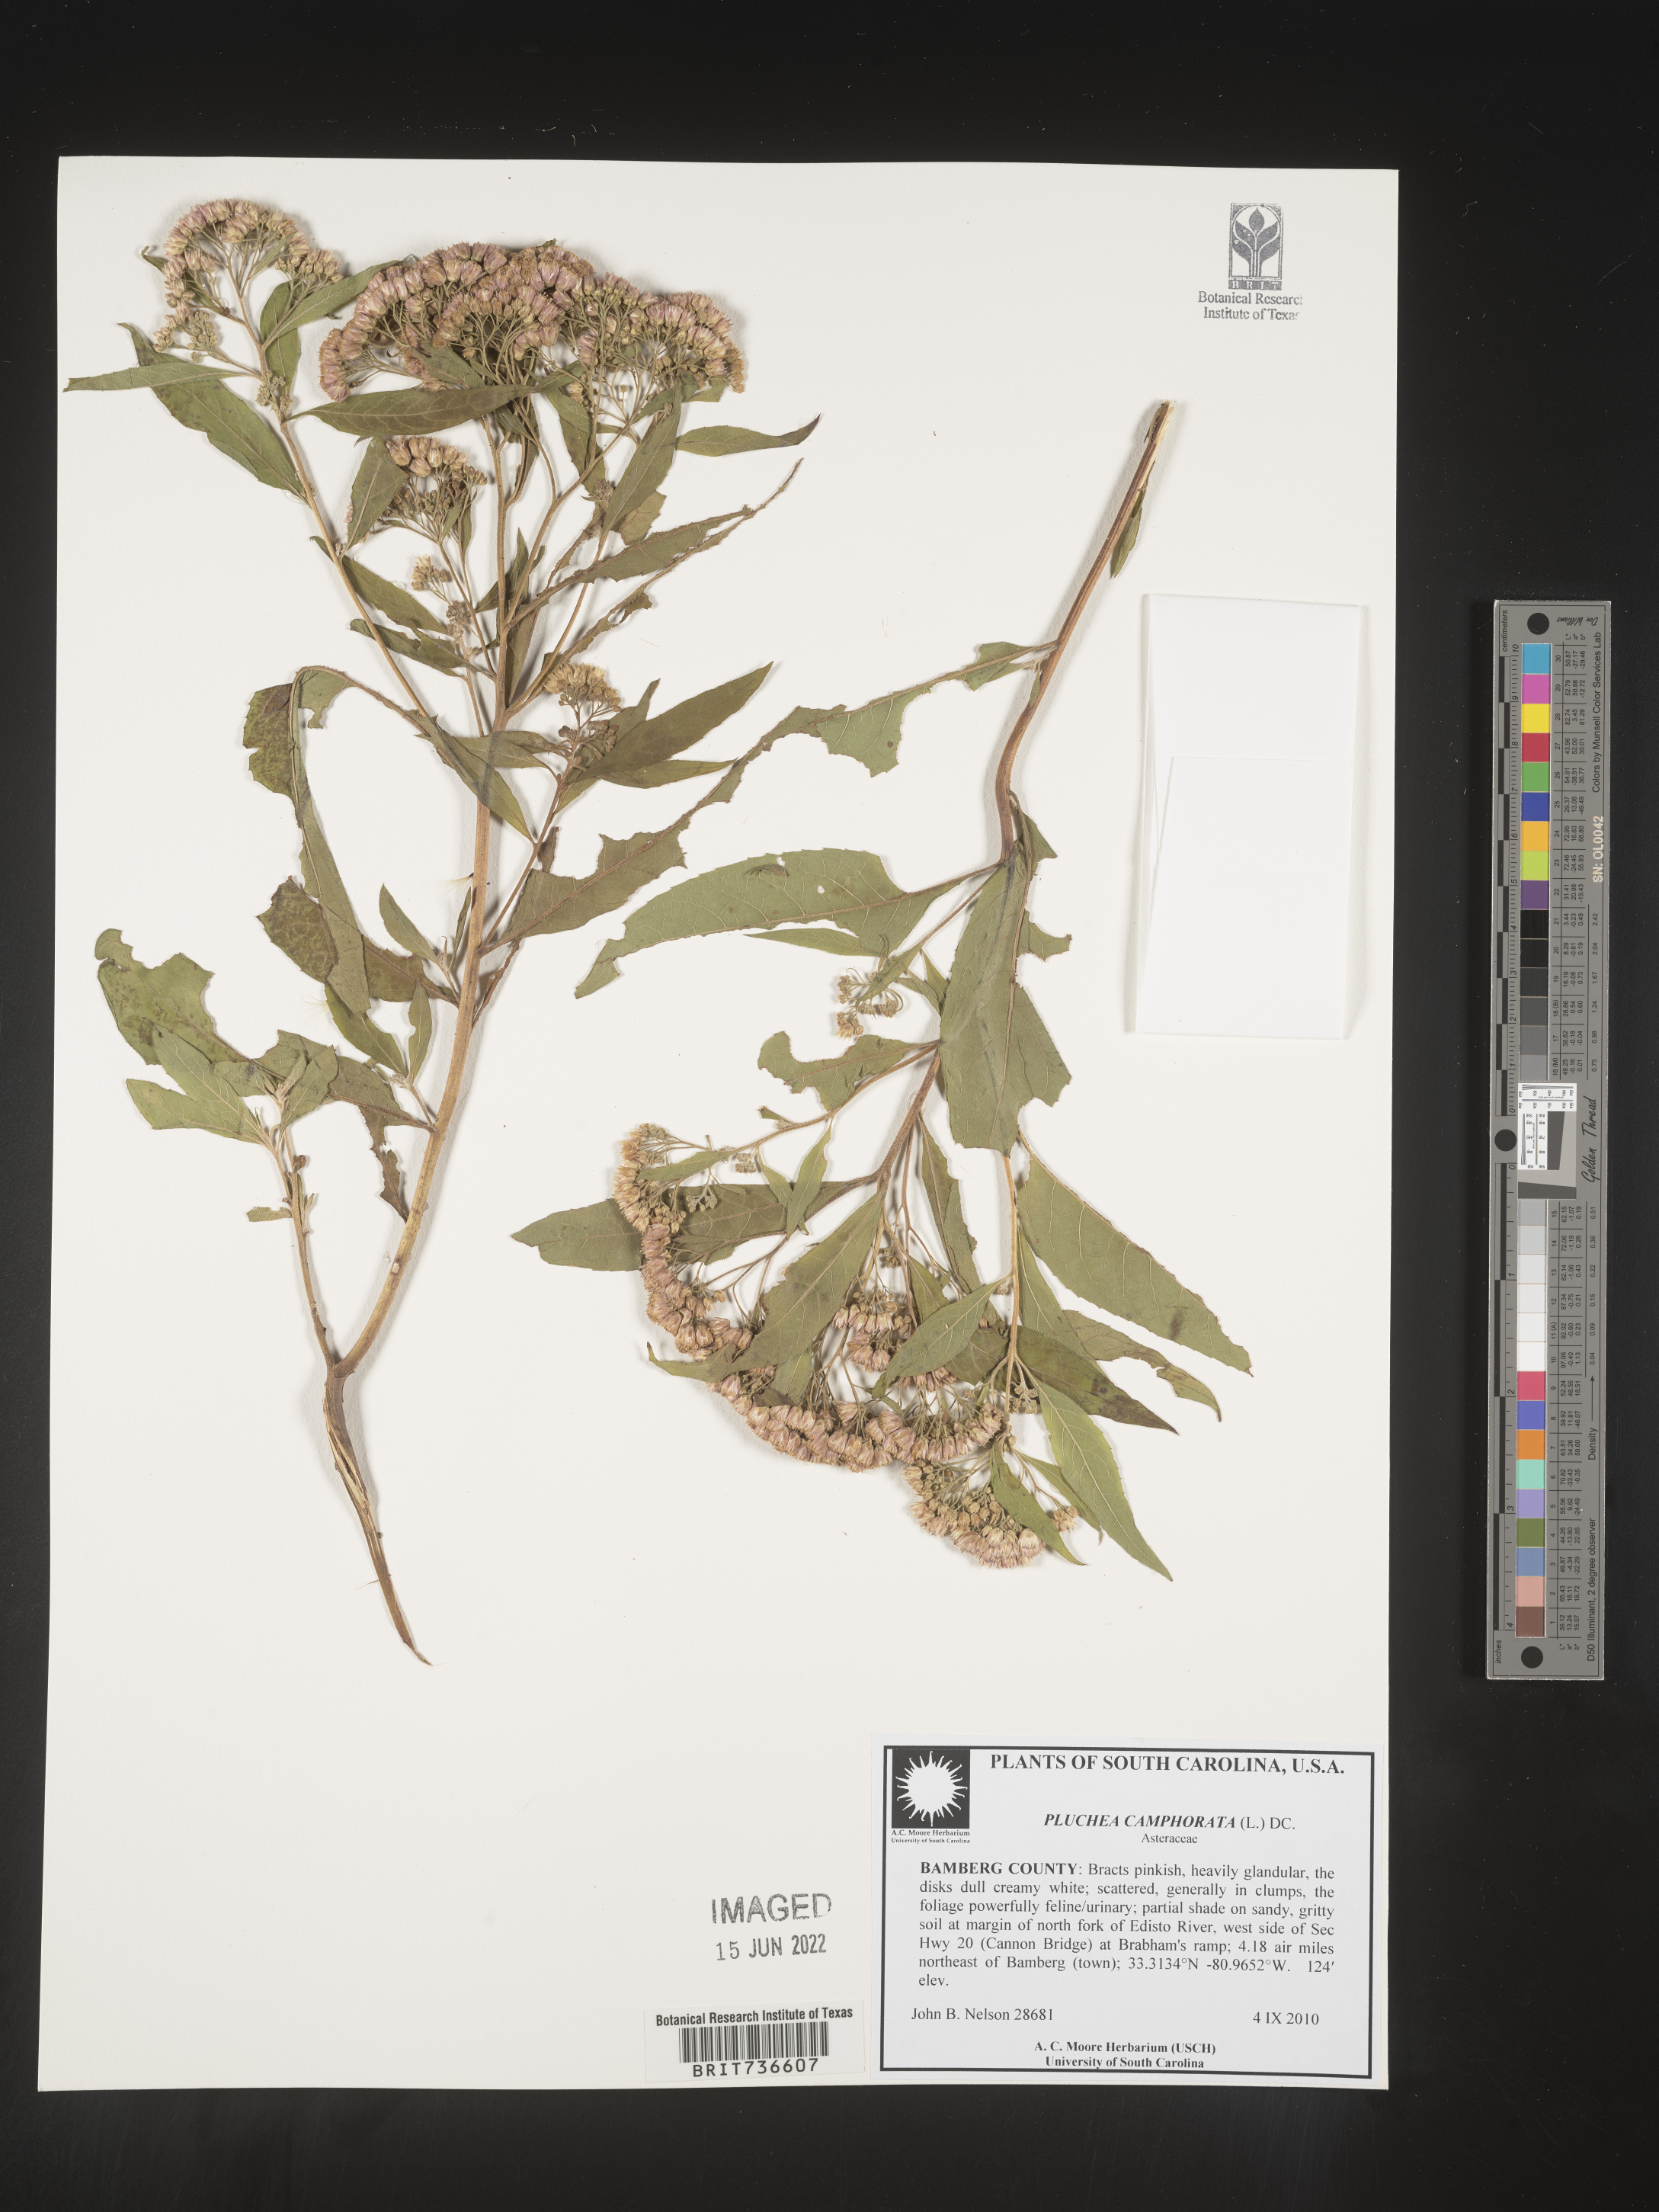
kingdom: Plantae
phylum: Tracheophyta
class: Magnoliopsida
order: Asterales
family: Asteraceae
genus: Pluchea
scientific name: Pluchea camphorata
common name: Camphor pluchea
